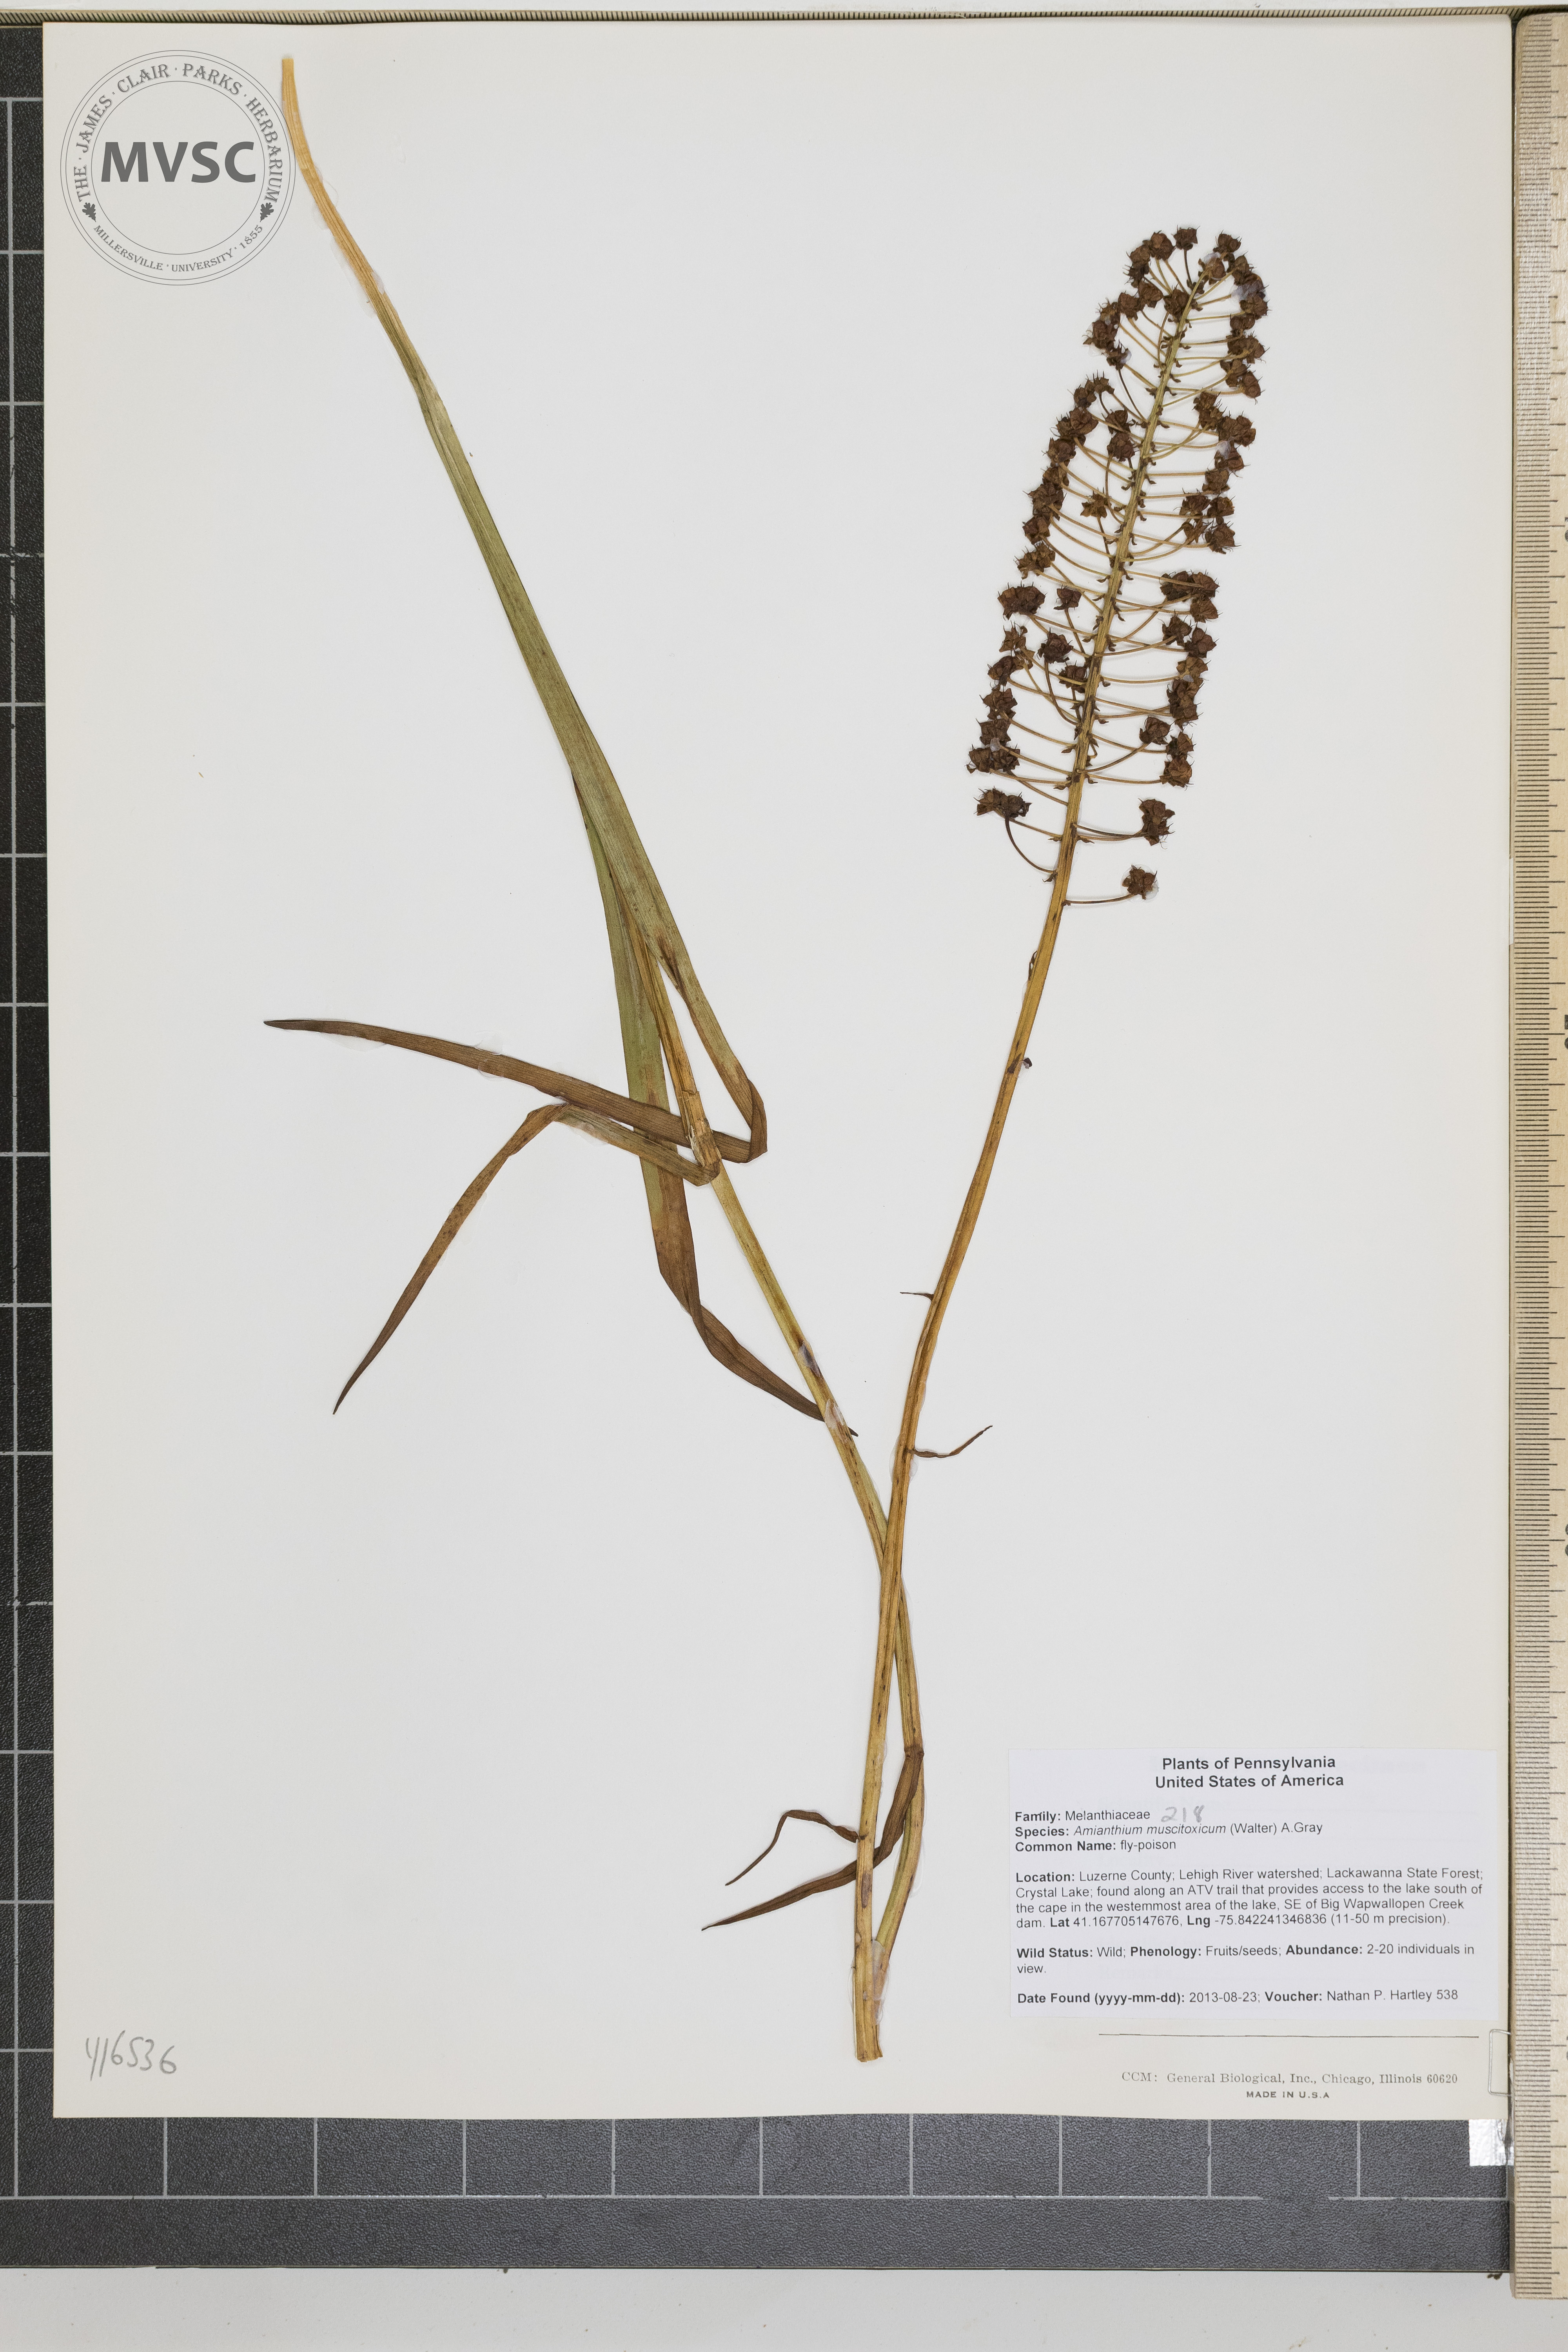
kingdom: Plantae
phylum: Tracheophyta
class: Liliopsida
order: Liliales
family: Melanthiaceae
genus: Amianthium
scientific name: Amianthium muscitoxicum
